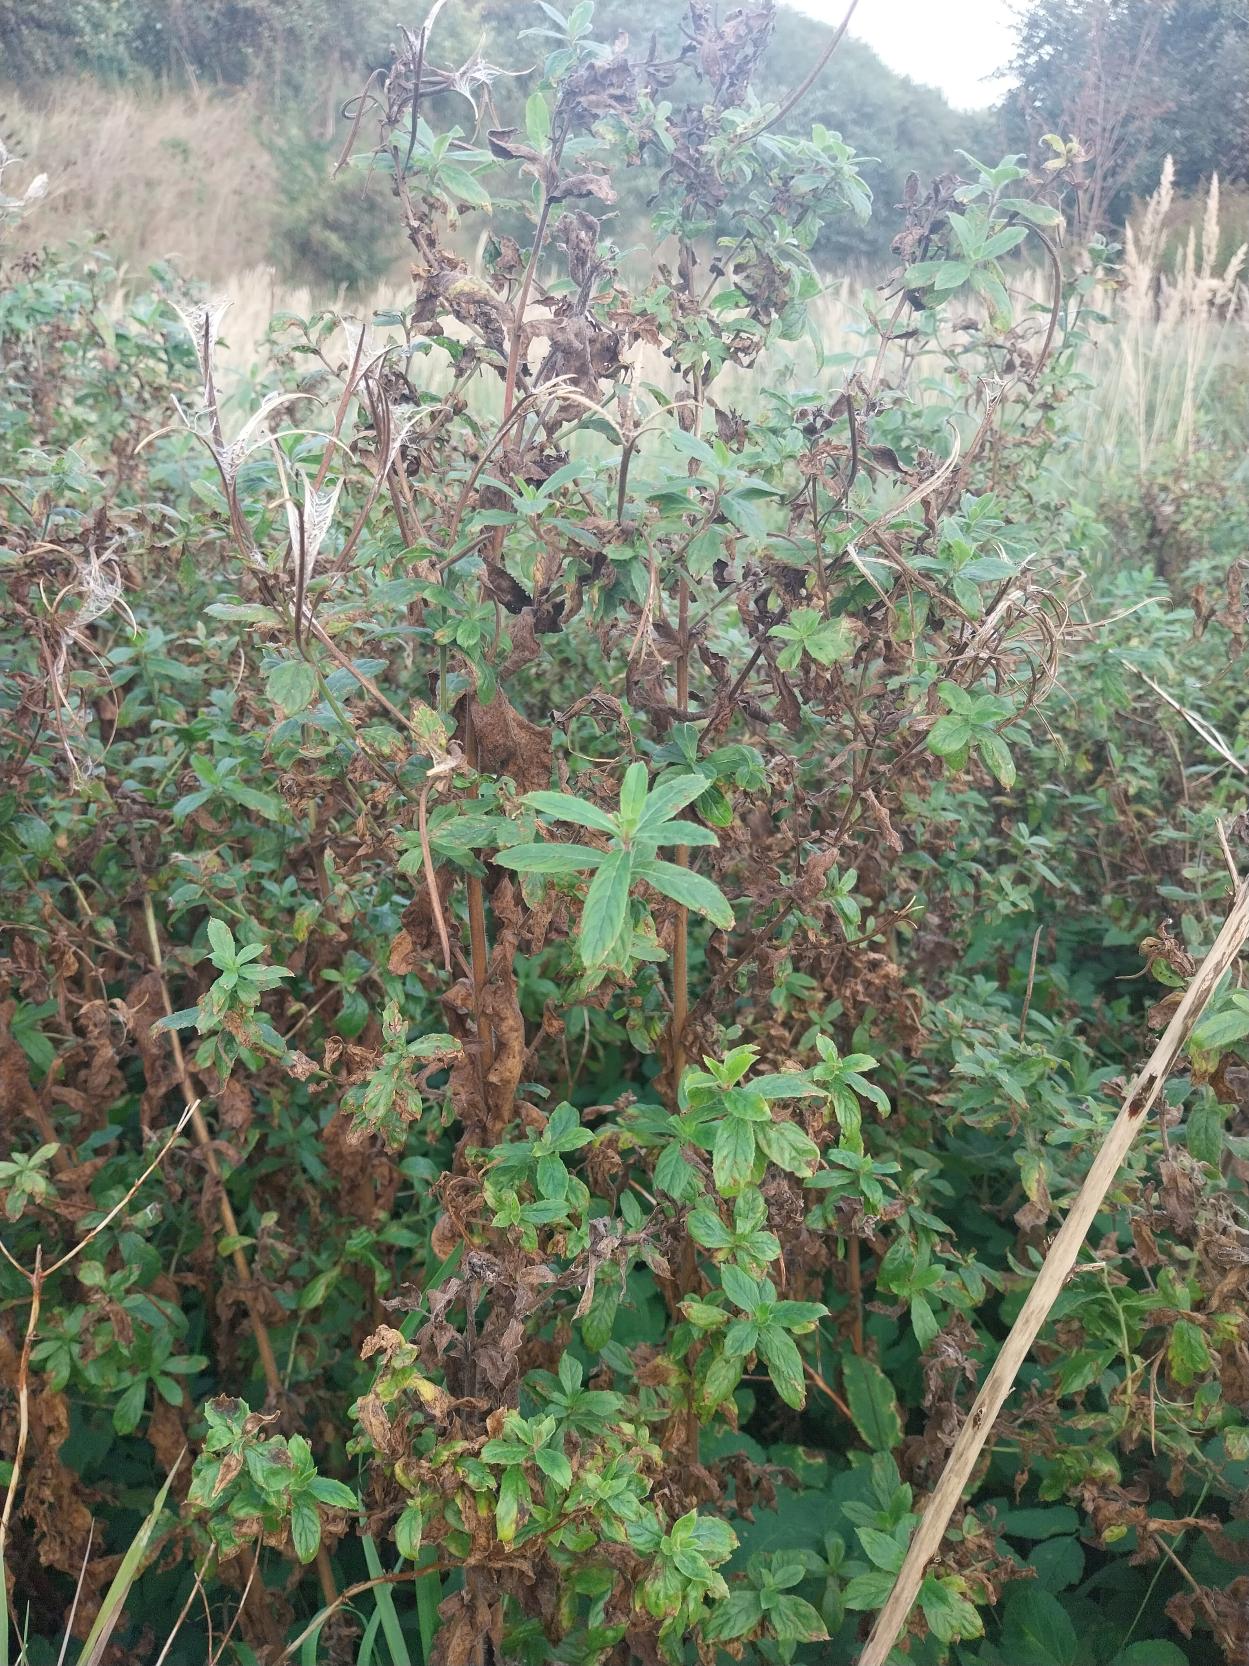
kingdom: Plantae
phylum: Tracheophyta
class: Magnoliopsida
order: Myrtales
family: Onagraceae
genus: Epilobium
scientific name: Epilobium hirsutum
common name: Lådden dueurt
